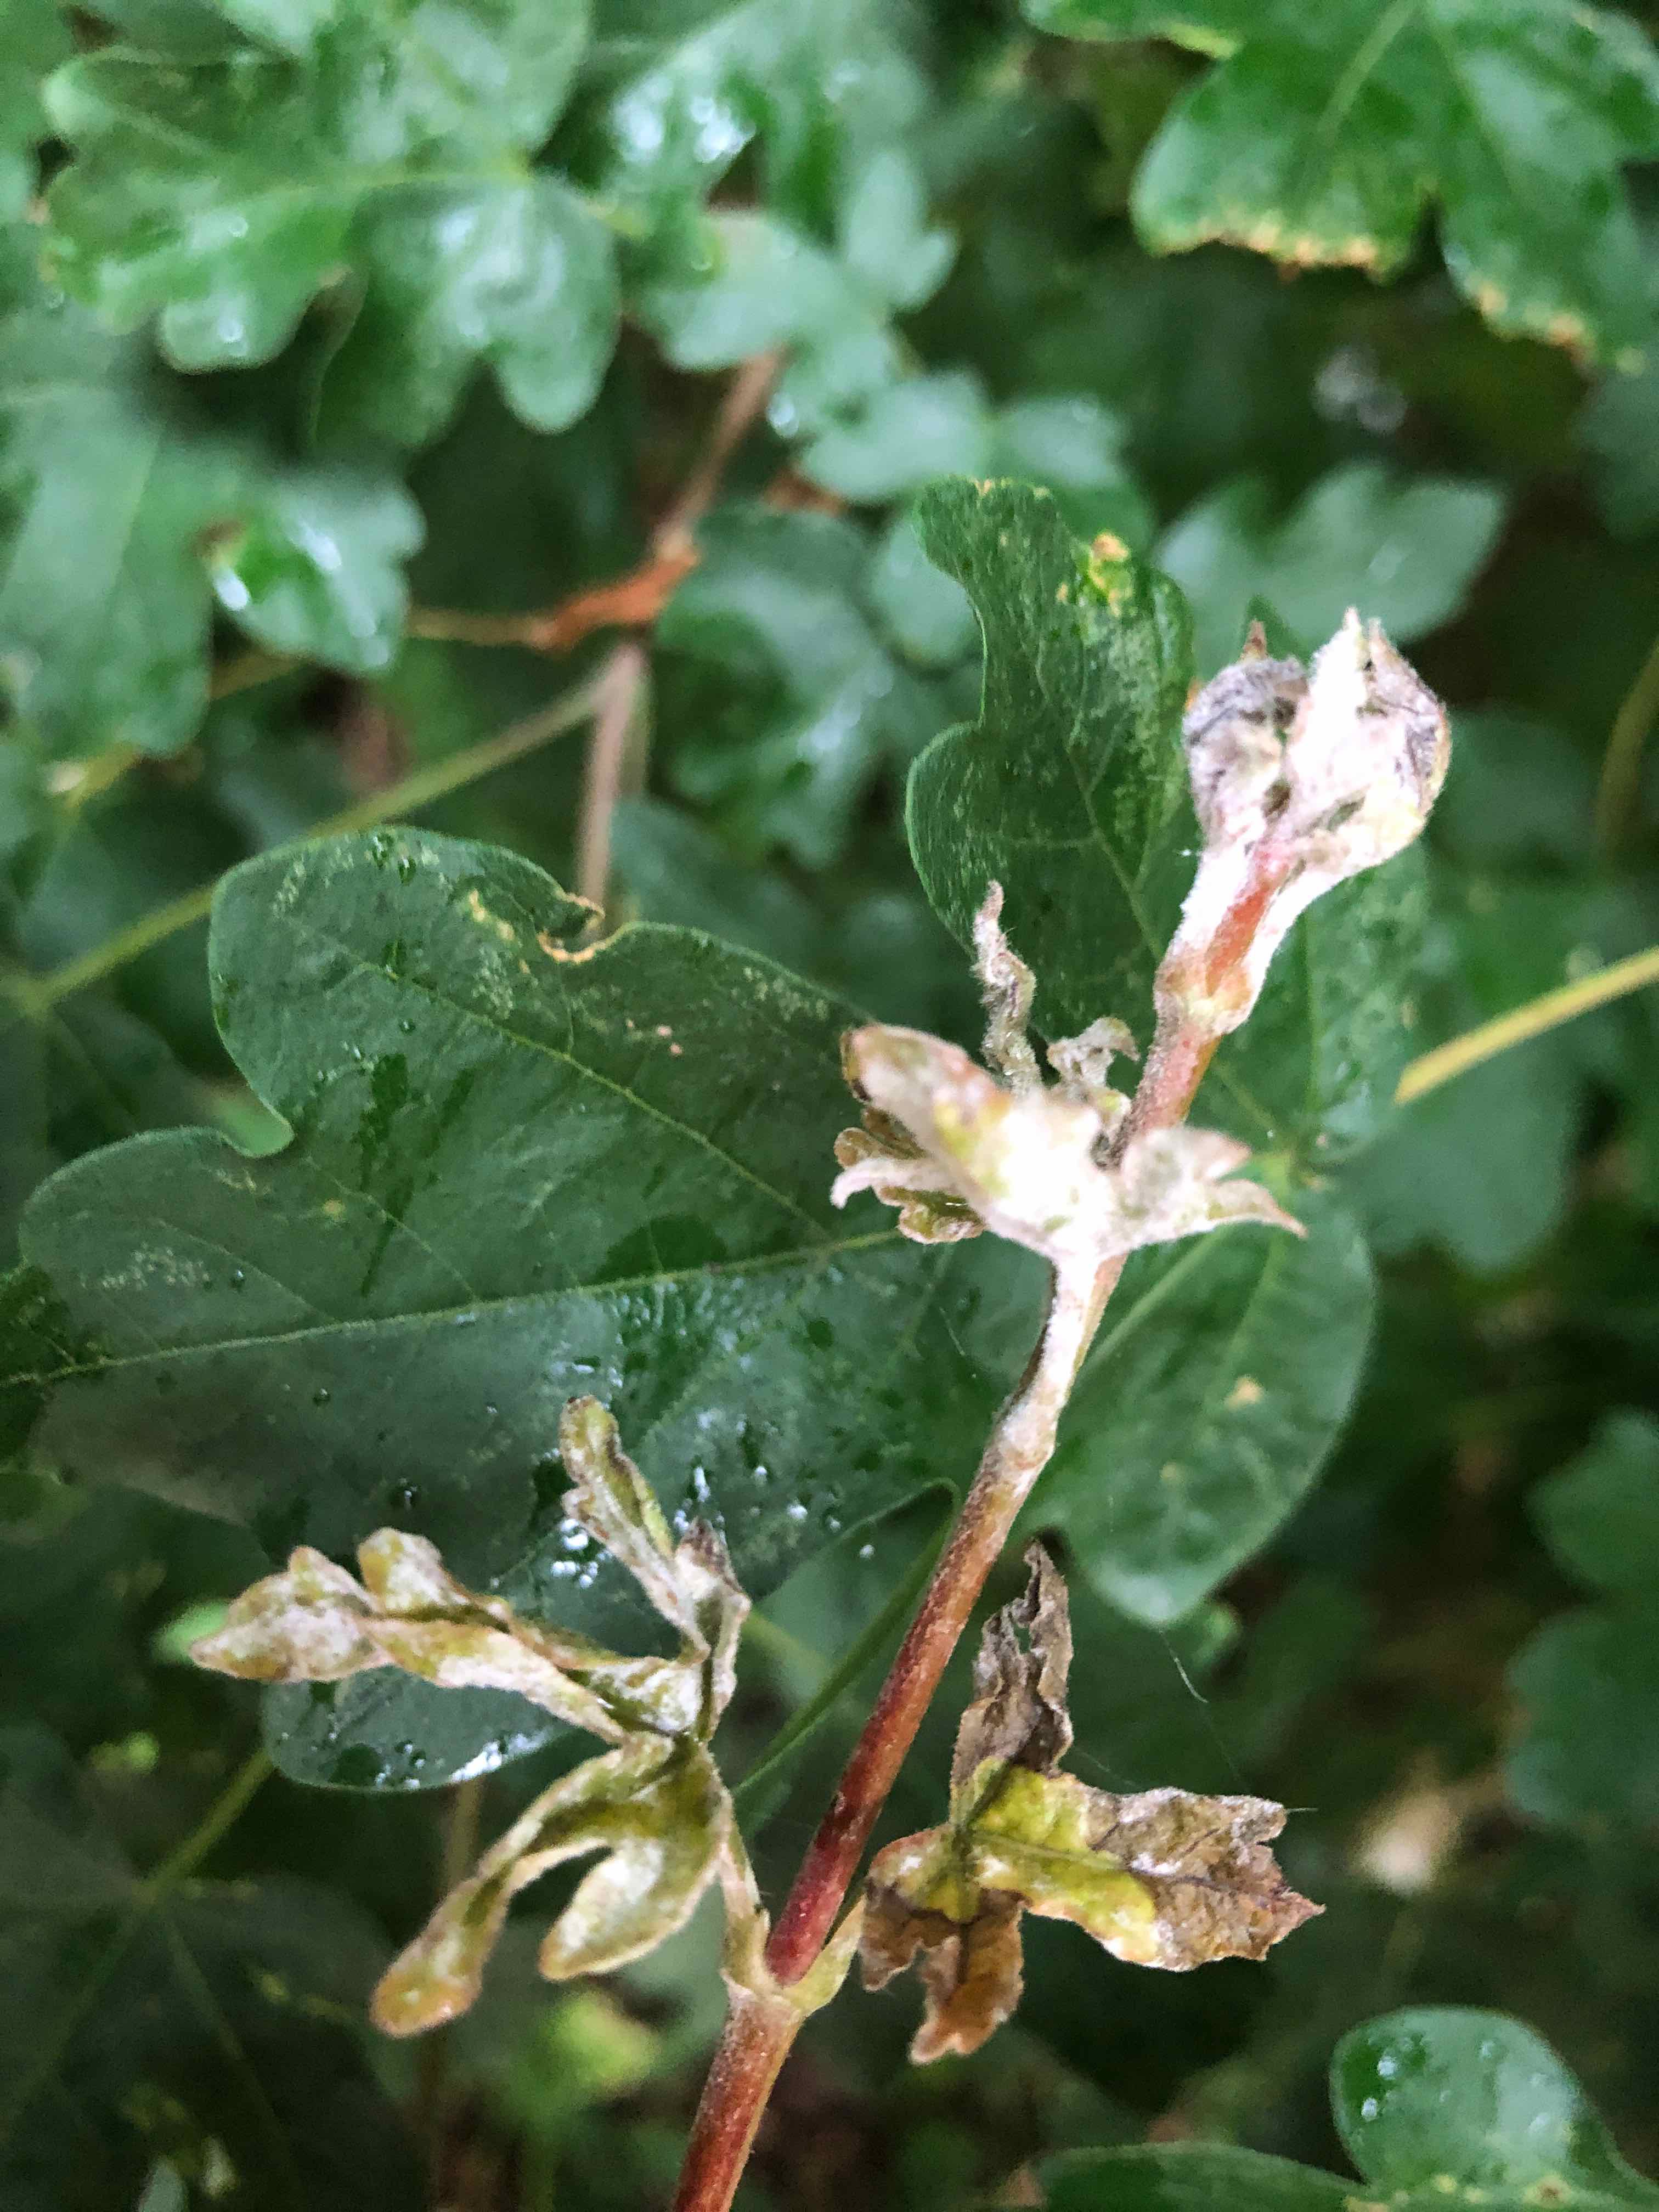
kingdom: Fungi
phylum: Ascomycota
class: Leotiomycetes
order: Helotiales
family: Erysiphaceae
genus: Sawadaea
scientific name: Sawadaea bicornis
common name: Maple mildew
